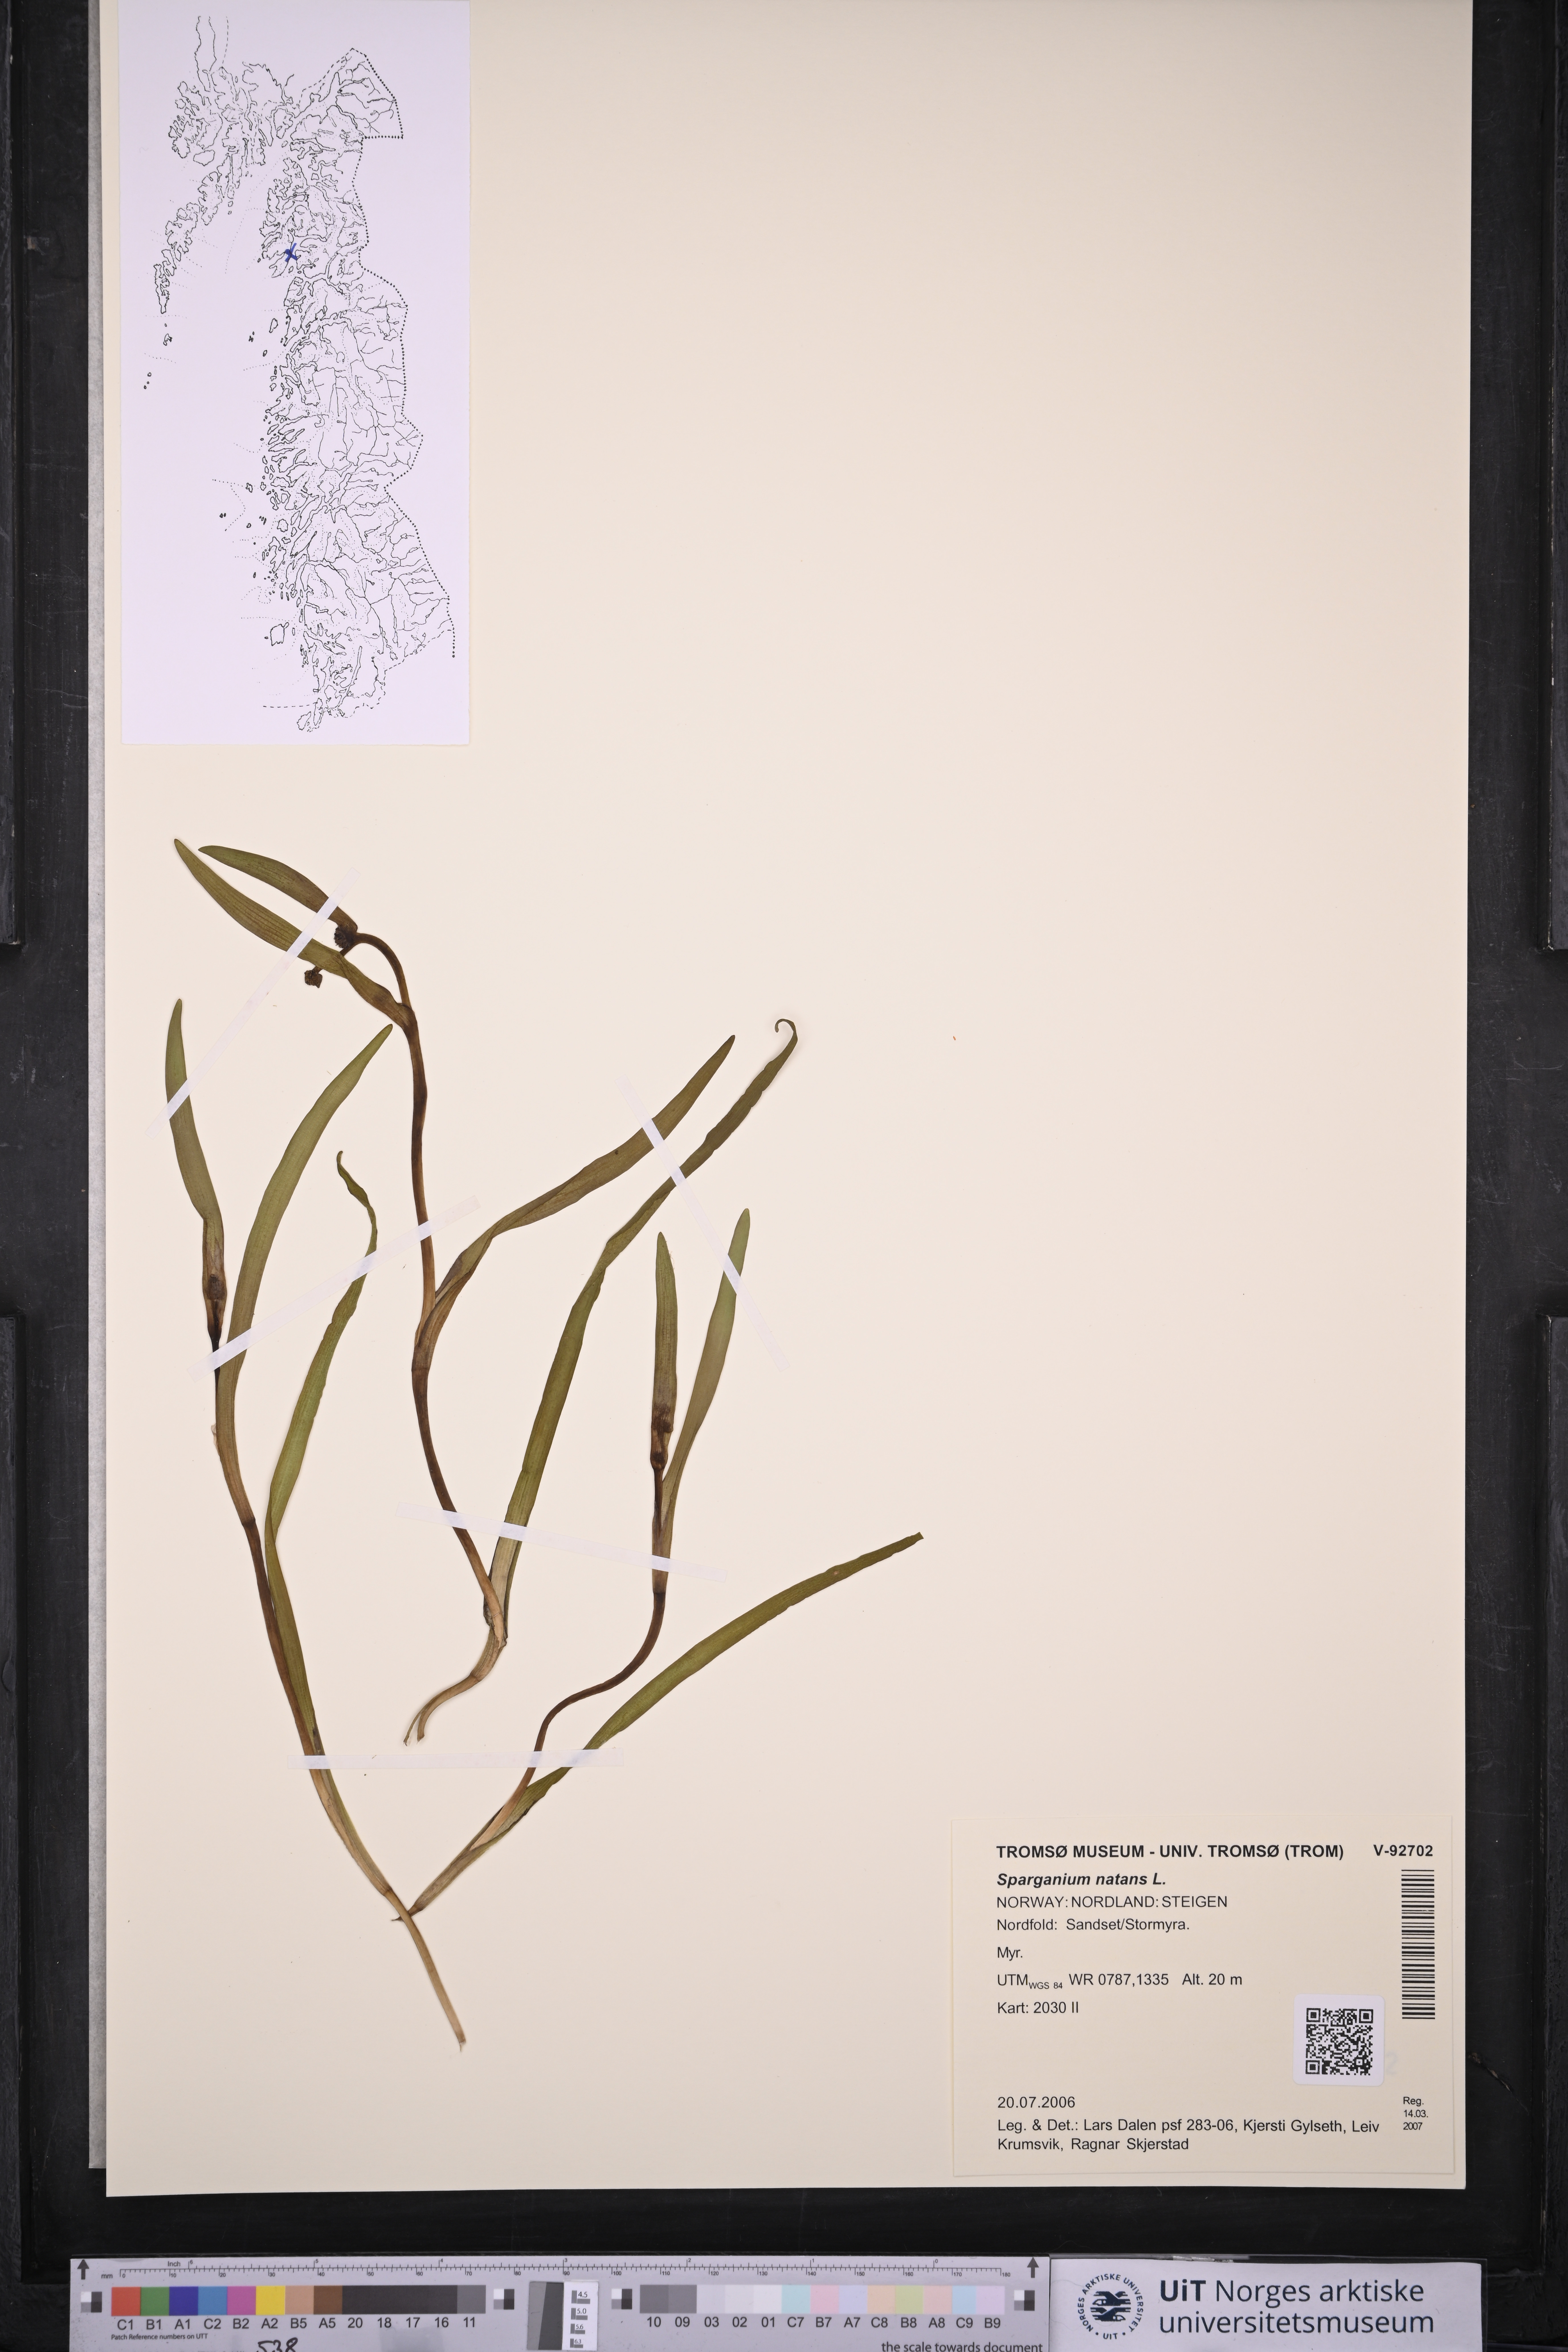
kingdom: Plantae
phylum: Tracheophyta
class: Liliopsida
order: Poales
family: Typhaceae
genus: Sparganium
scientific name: Sparganium natans
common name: Least bur-reed
